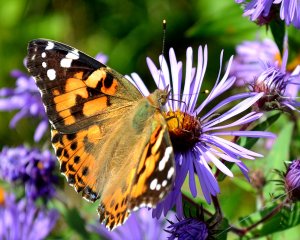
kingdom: Animalia
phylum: Arthropoda
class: Insecta
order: Lepidoptera
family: Nymphalidae
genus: Vanessa
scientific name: Vanessa cardui
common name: Painted Lady
